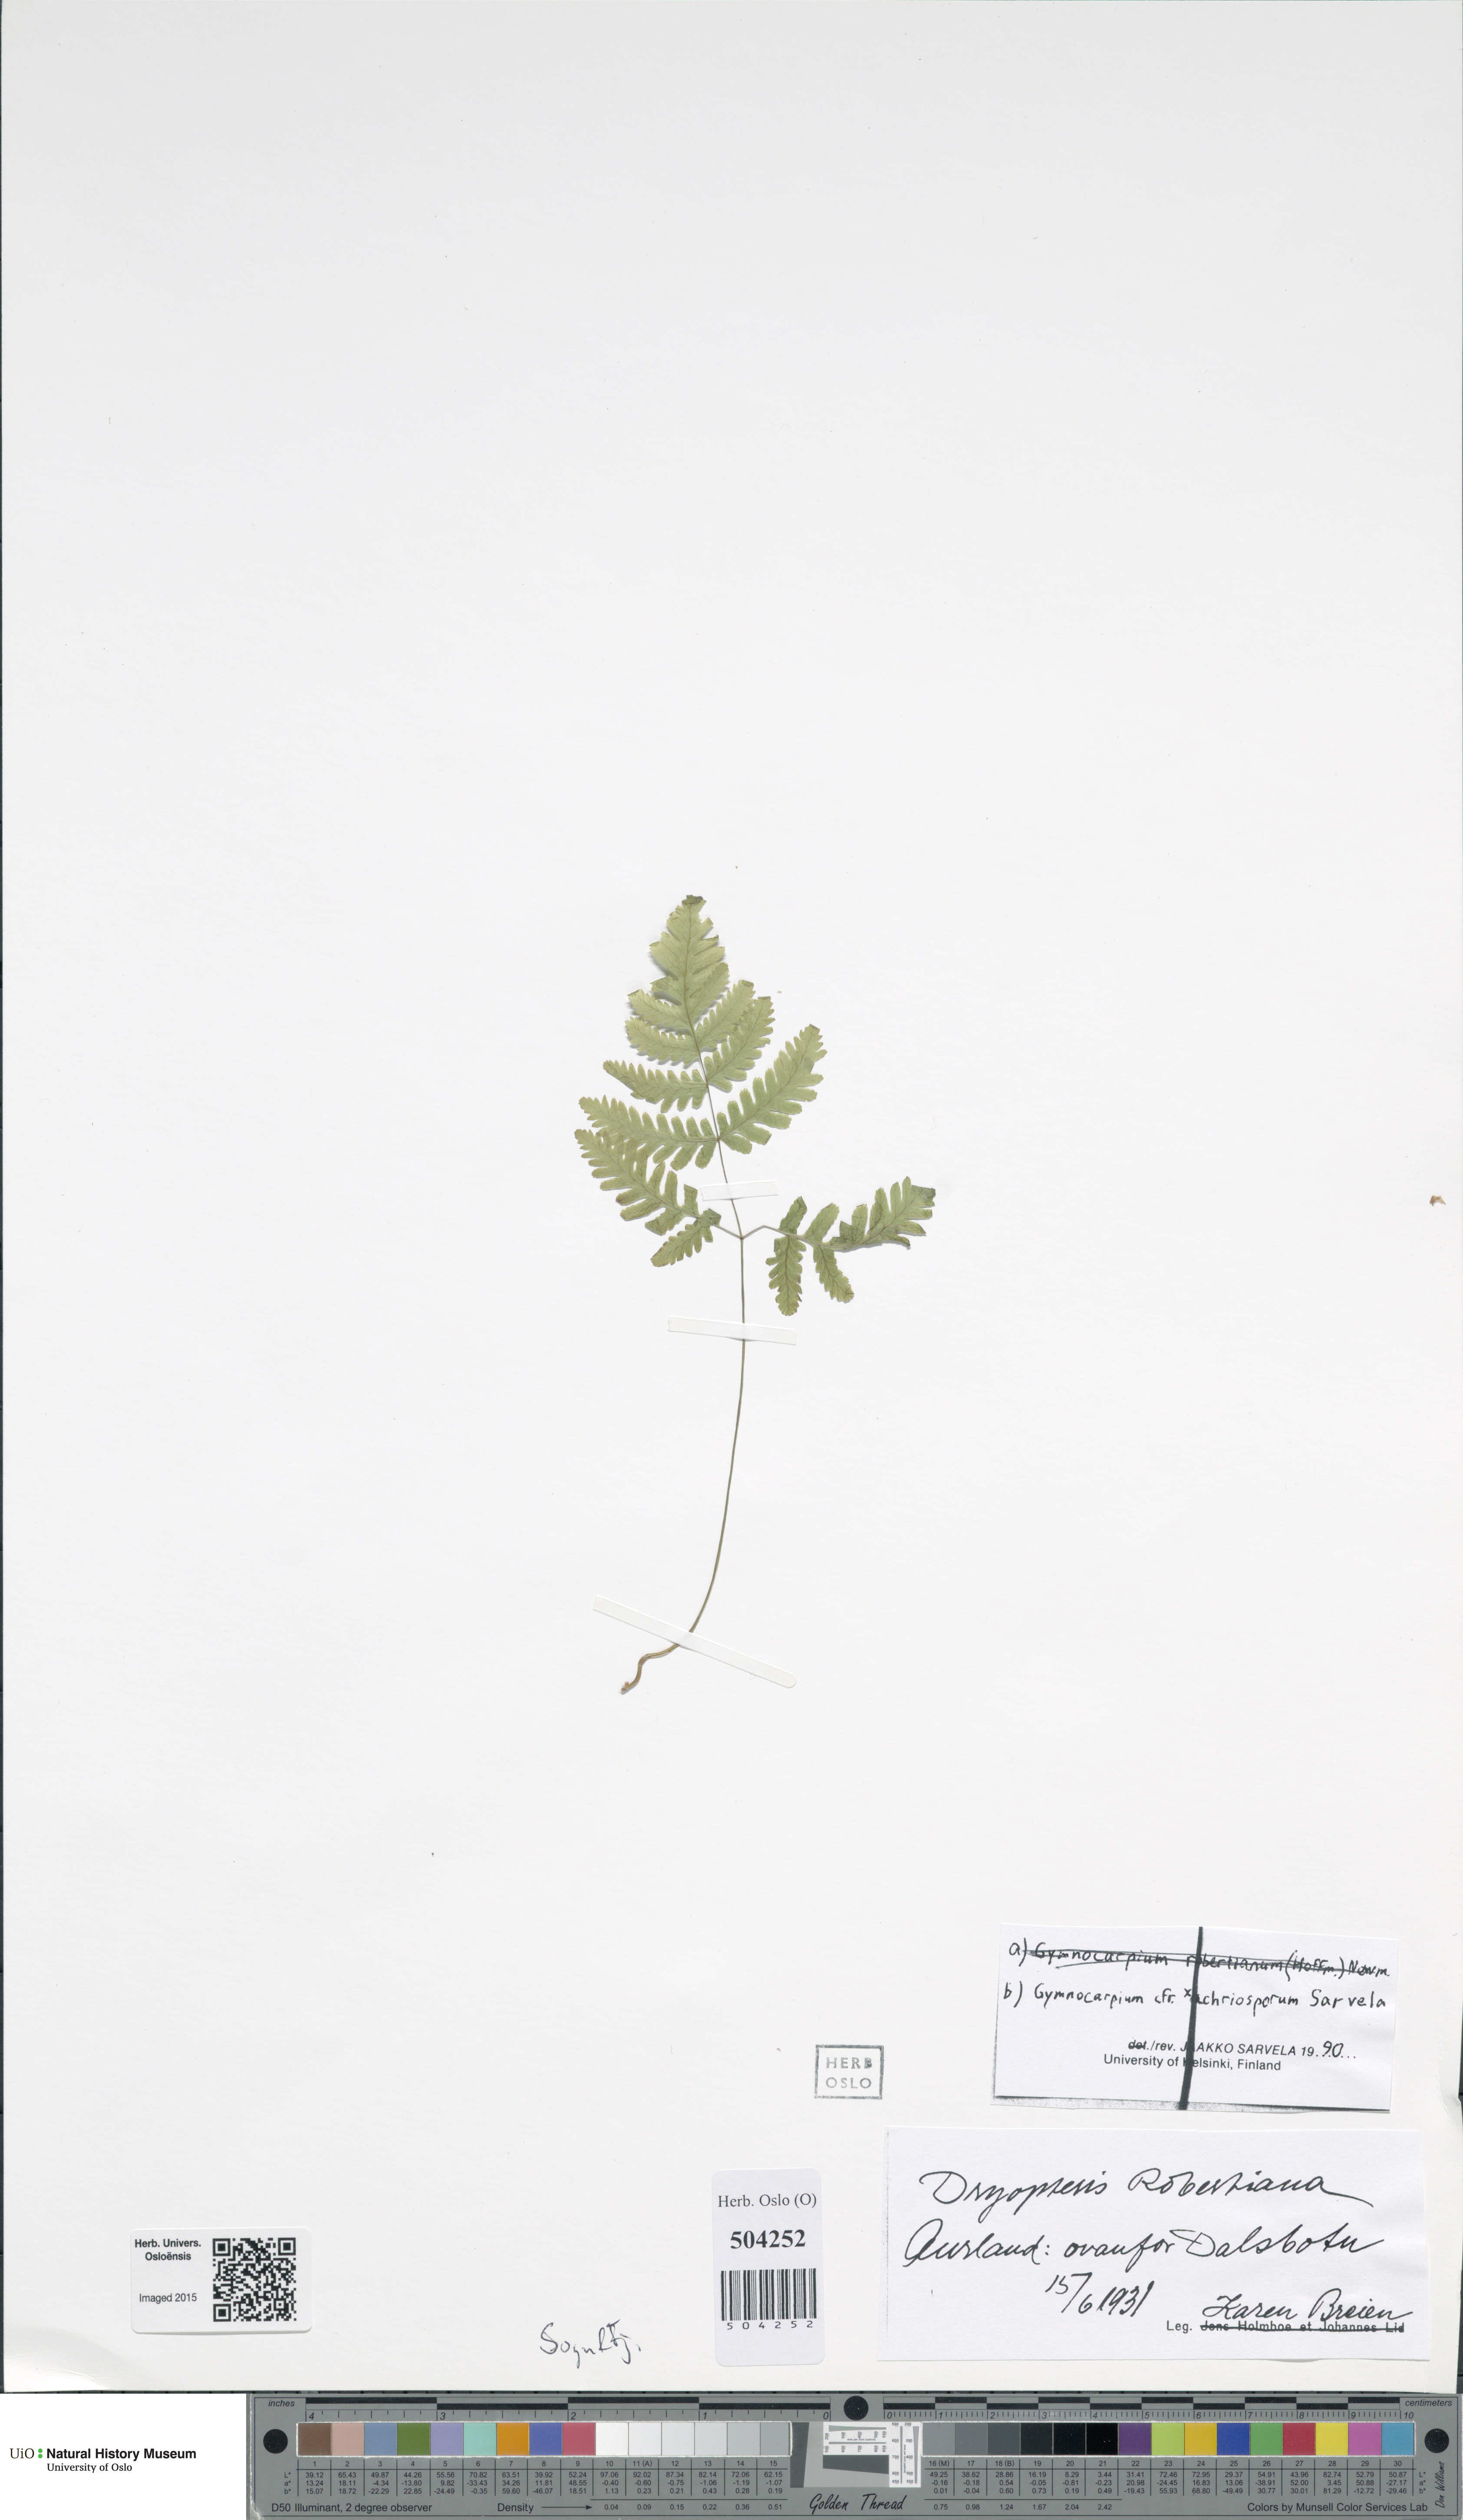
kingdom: Plantae
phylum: Tracheophyta
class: Polypodiopsida
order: Polypodiales
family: Cystopteridaceae
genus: Gymnocarpium
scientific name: Gymnocarpium
